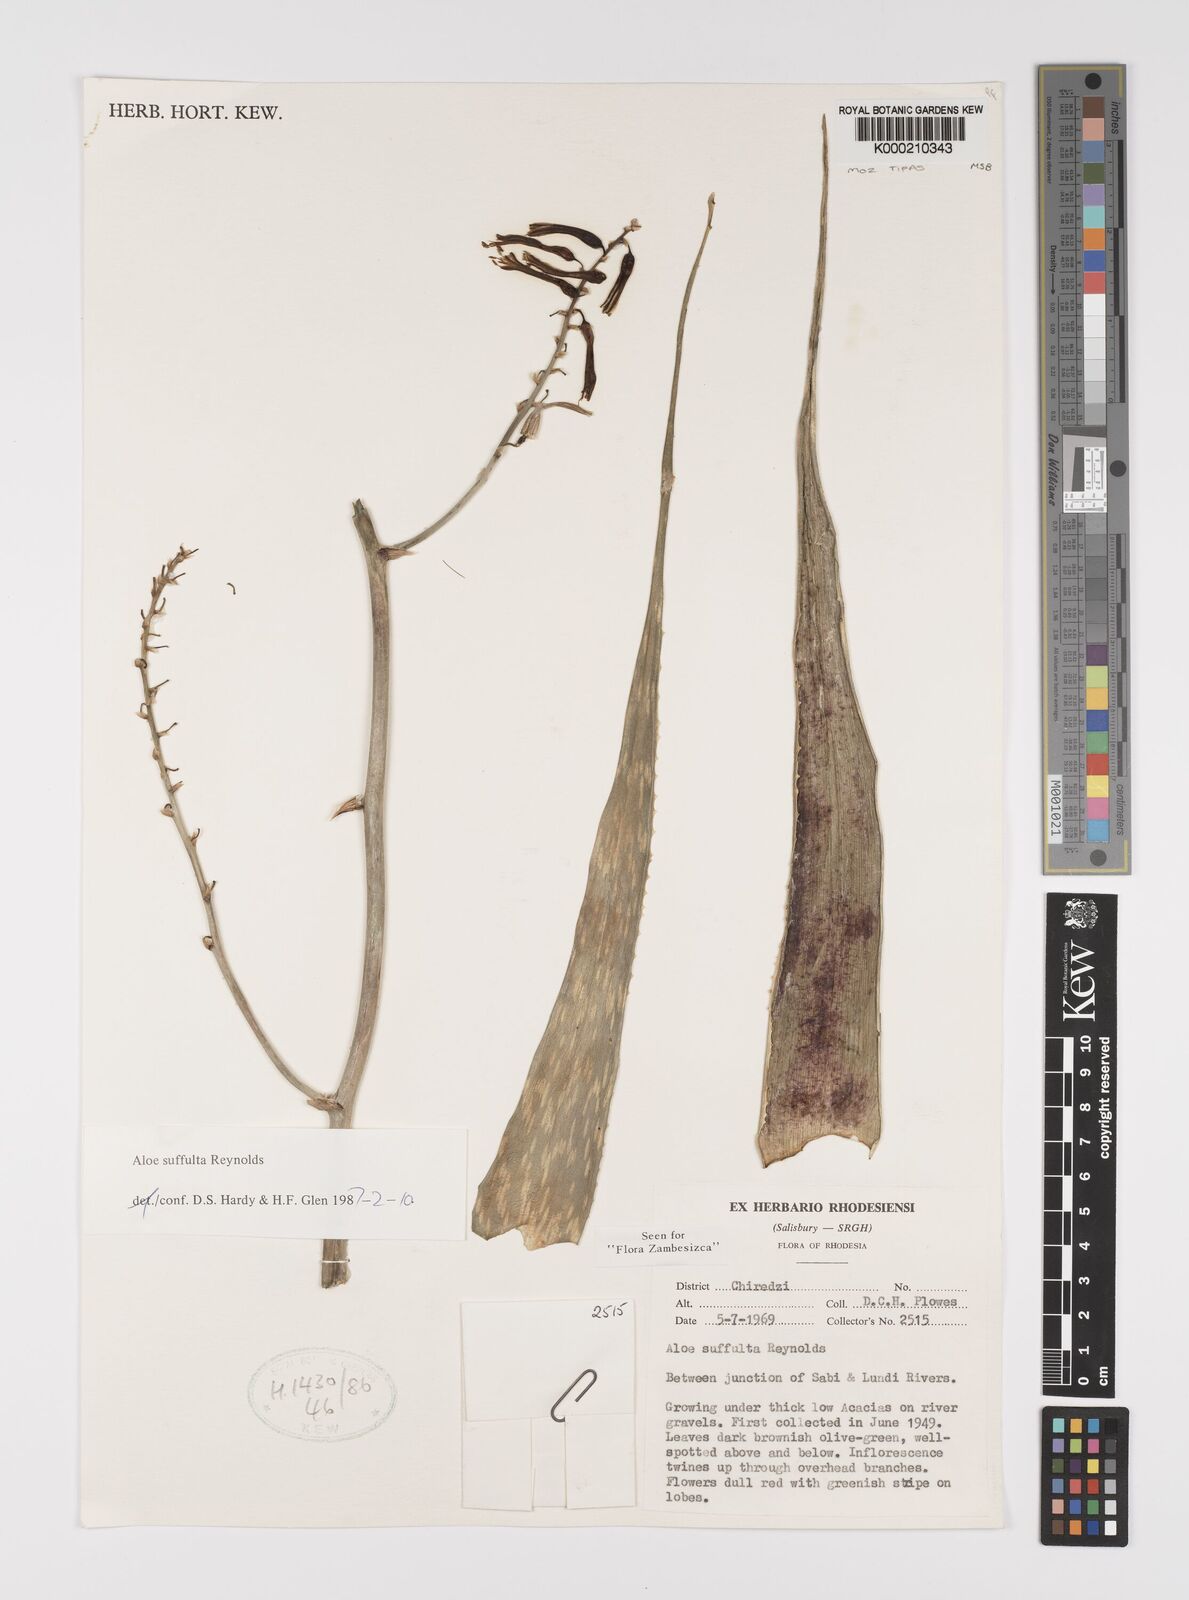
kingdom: Plantae
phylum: Tracheophyta
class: Liliopsida
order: Asparagales
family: Asphodelaceae
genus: Aloe
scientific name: Aloe suffulta
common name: Climbing-flower aloe
